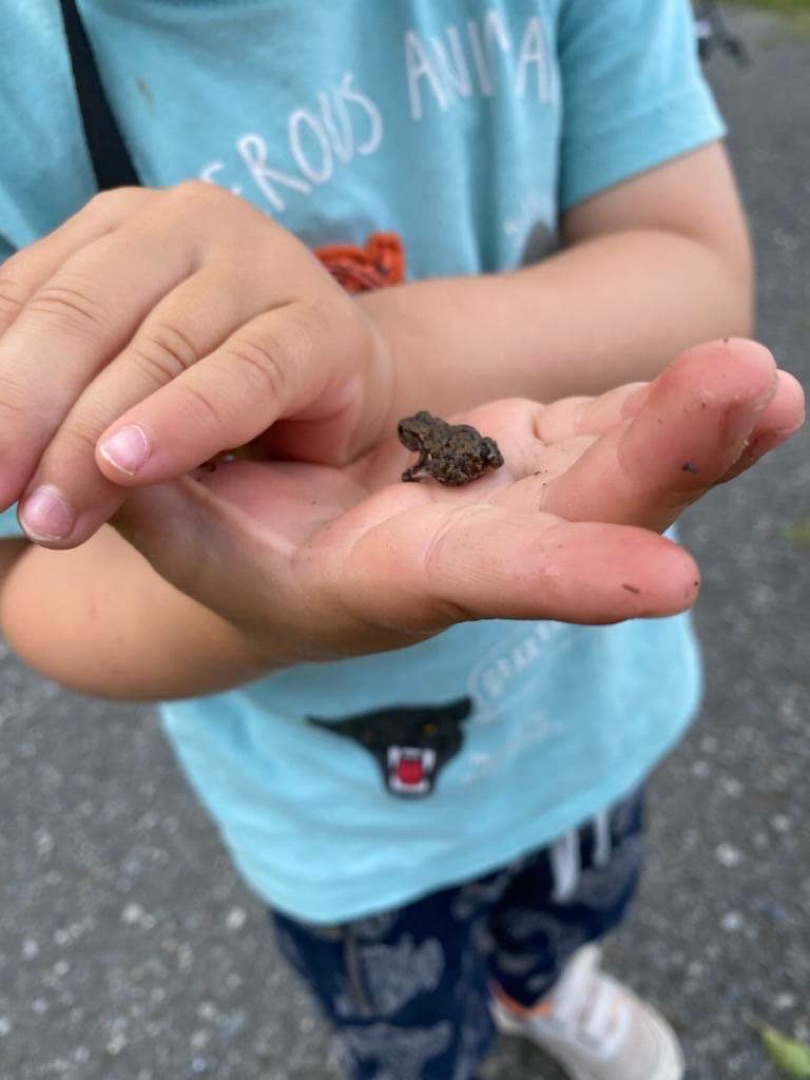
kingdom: Animalia
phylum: Chordata
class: Amphibia
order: Anura
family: Bufonidae
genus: Bufo
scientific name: Bufo bufo
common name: Skrubtudse
